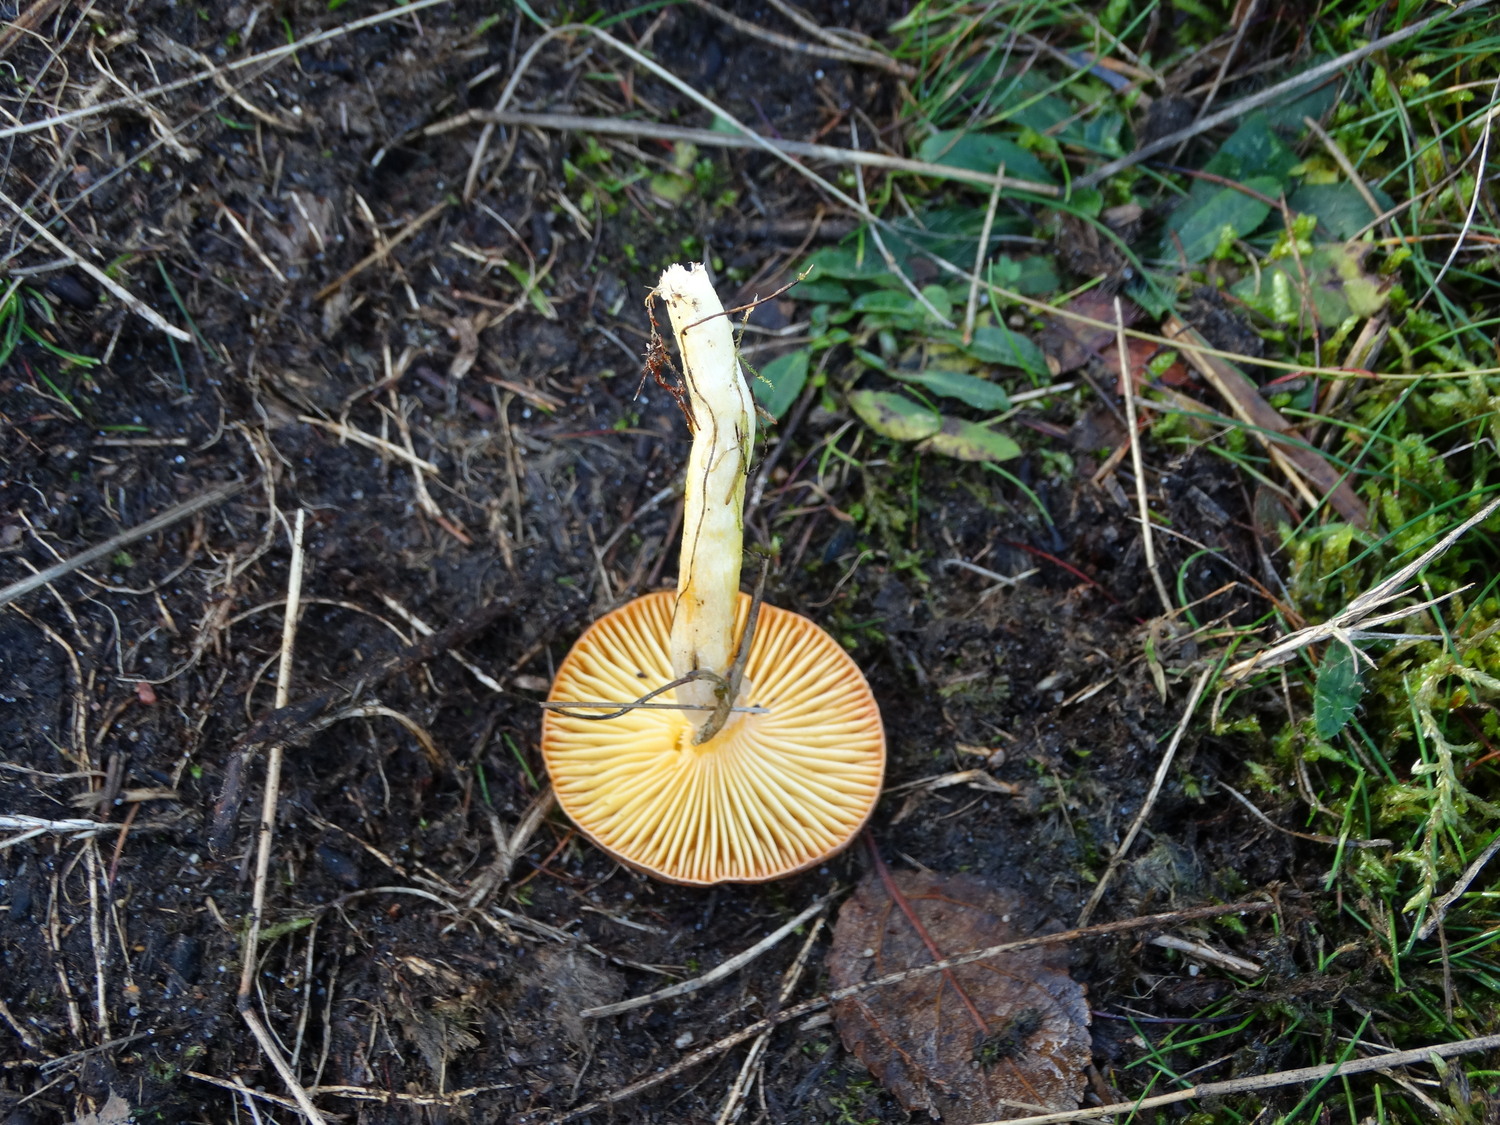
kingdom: Fungi
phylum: Basidiomycota
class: Agaricomycetes
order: Agaricales
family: Hygrophoraceae
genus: Hygrophorus
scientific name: Hygrophorus hypothejus
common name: frost-sneglehat
